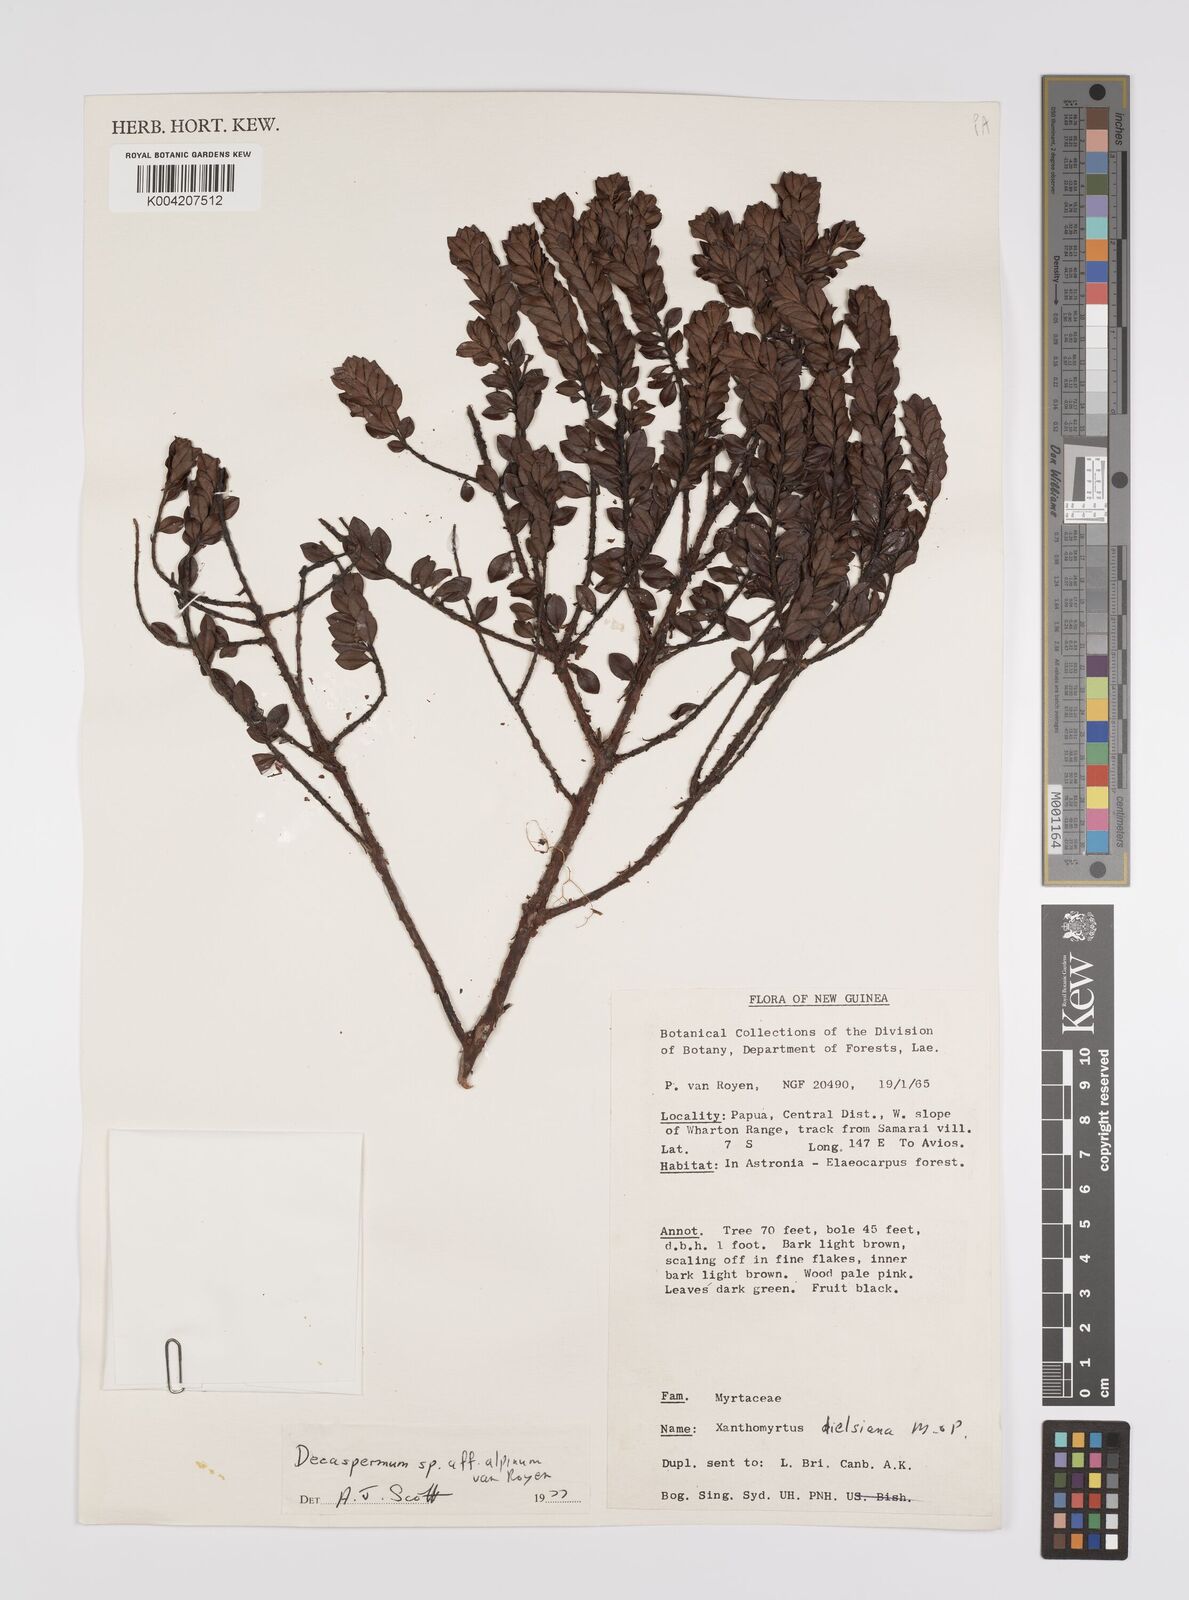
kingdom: Plantae
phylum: Tracheophyta
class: Magnoliopsida
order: Myrtales
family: Myrtaceae
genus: Decaspermum
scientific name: Decaspermum alpinum
